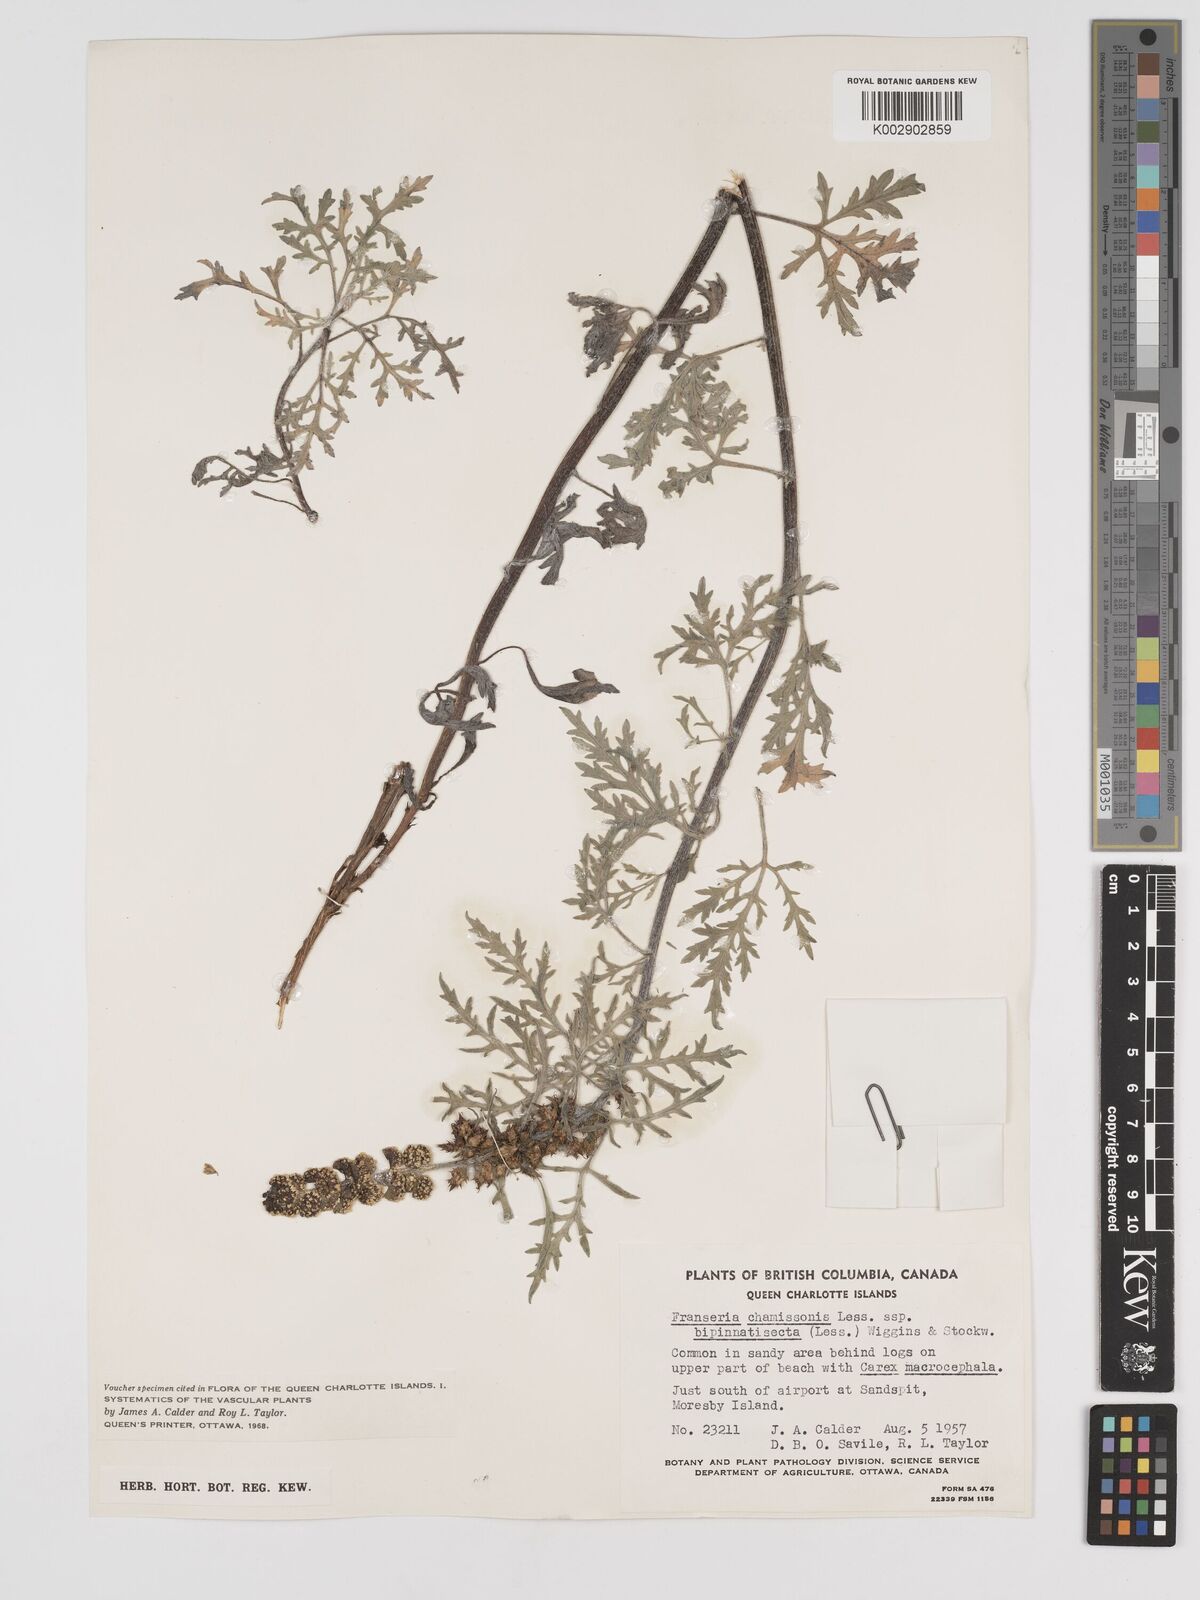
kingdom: Plantae
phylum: Tracheophyta
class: Magnoliopsida
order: Asterales
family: Asteraceae
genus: Ambrosia
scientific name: Ambrosia chamissonis
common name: Beachbur
